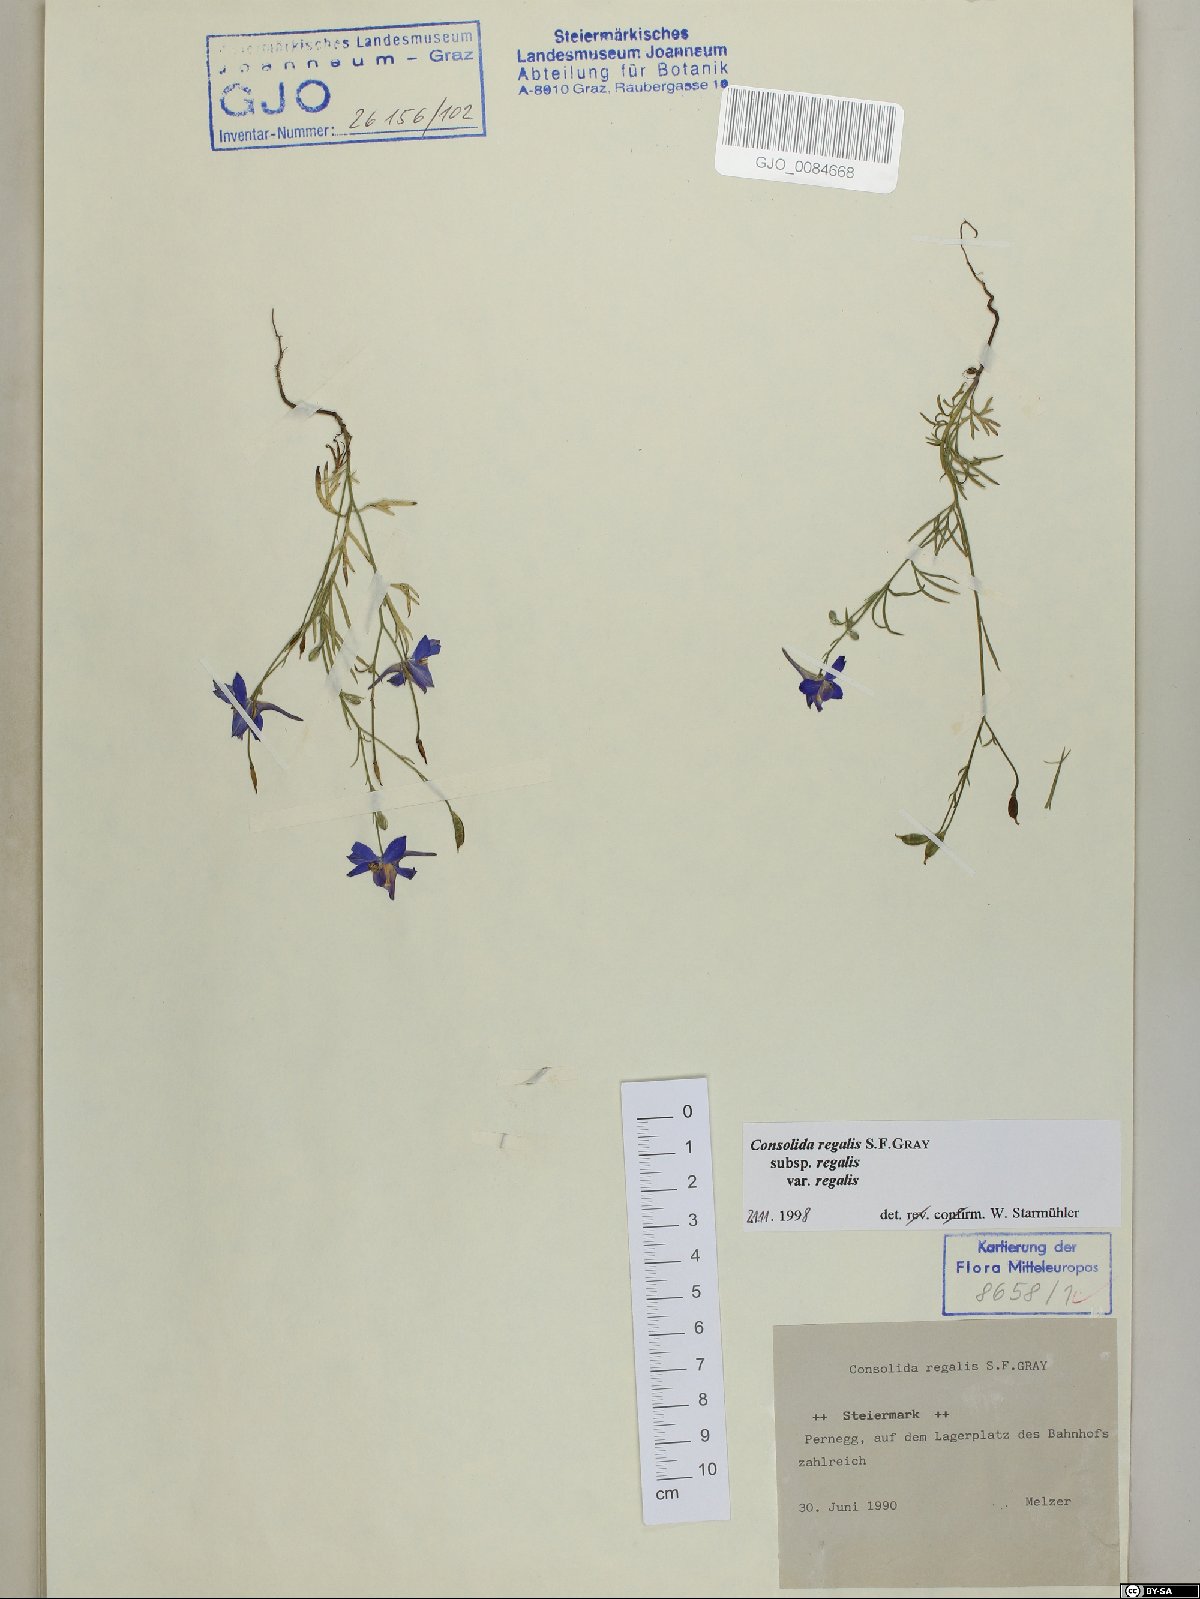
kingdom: Plantae
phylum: Tracheophyta
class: Magnoliopsida
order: Ranunculales
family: Ranunculaceae
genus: Delphinium
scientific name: Delphinium consolida
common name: Branching larkspur
